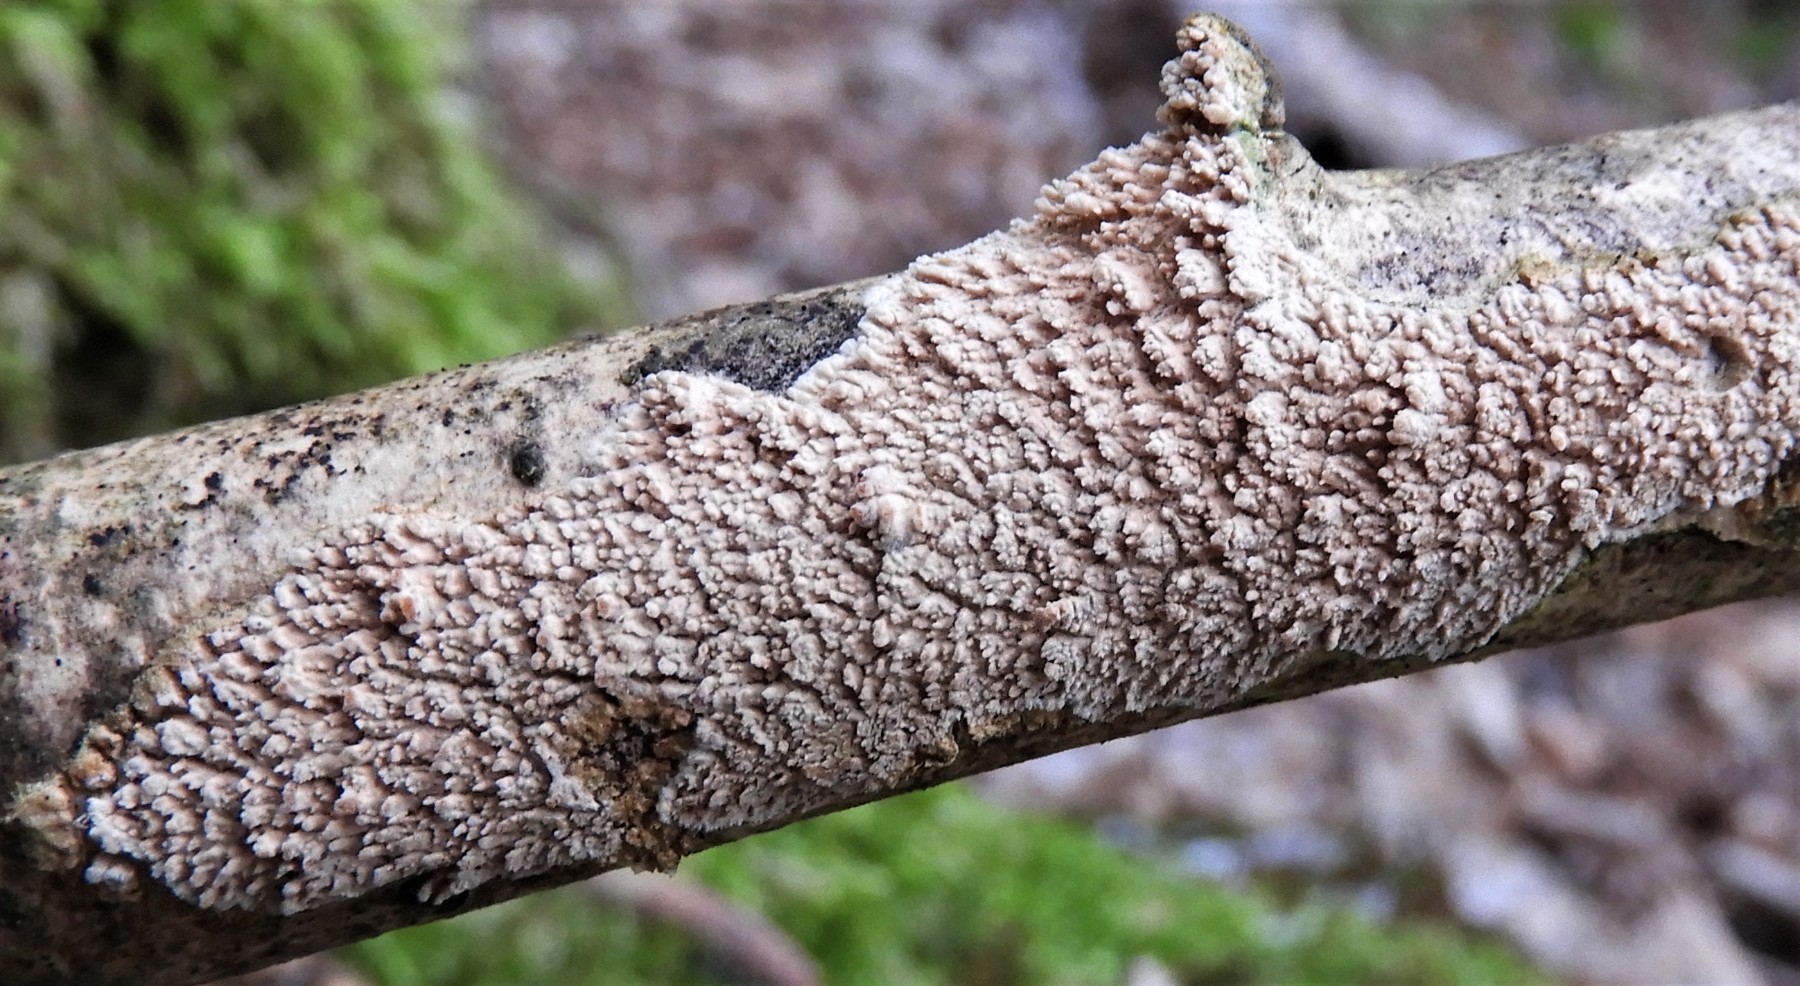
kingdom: Fungi
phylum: Basidiomycota
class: Agaricomycetes
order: Agaricales
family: Radulomycetaceae
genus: Radulomyces
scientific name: Radulomyces molaris
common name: tandet naftalinskind
